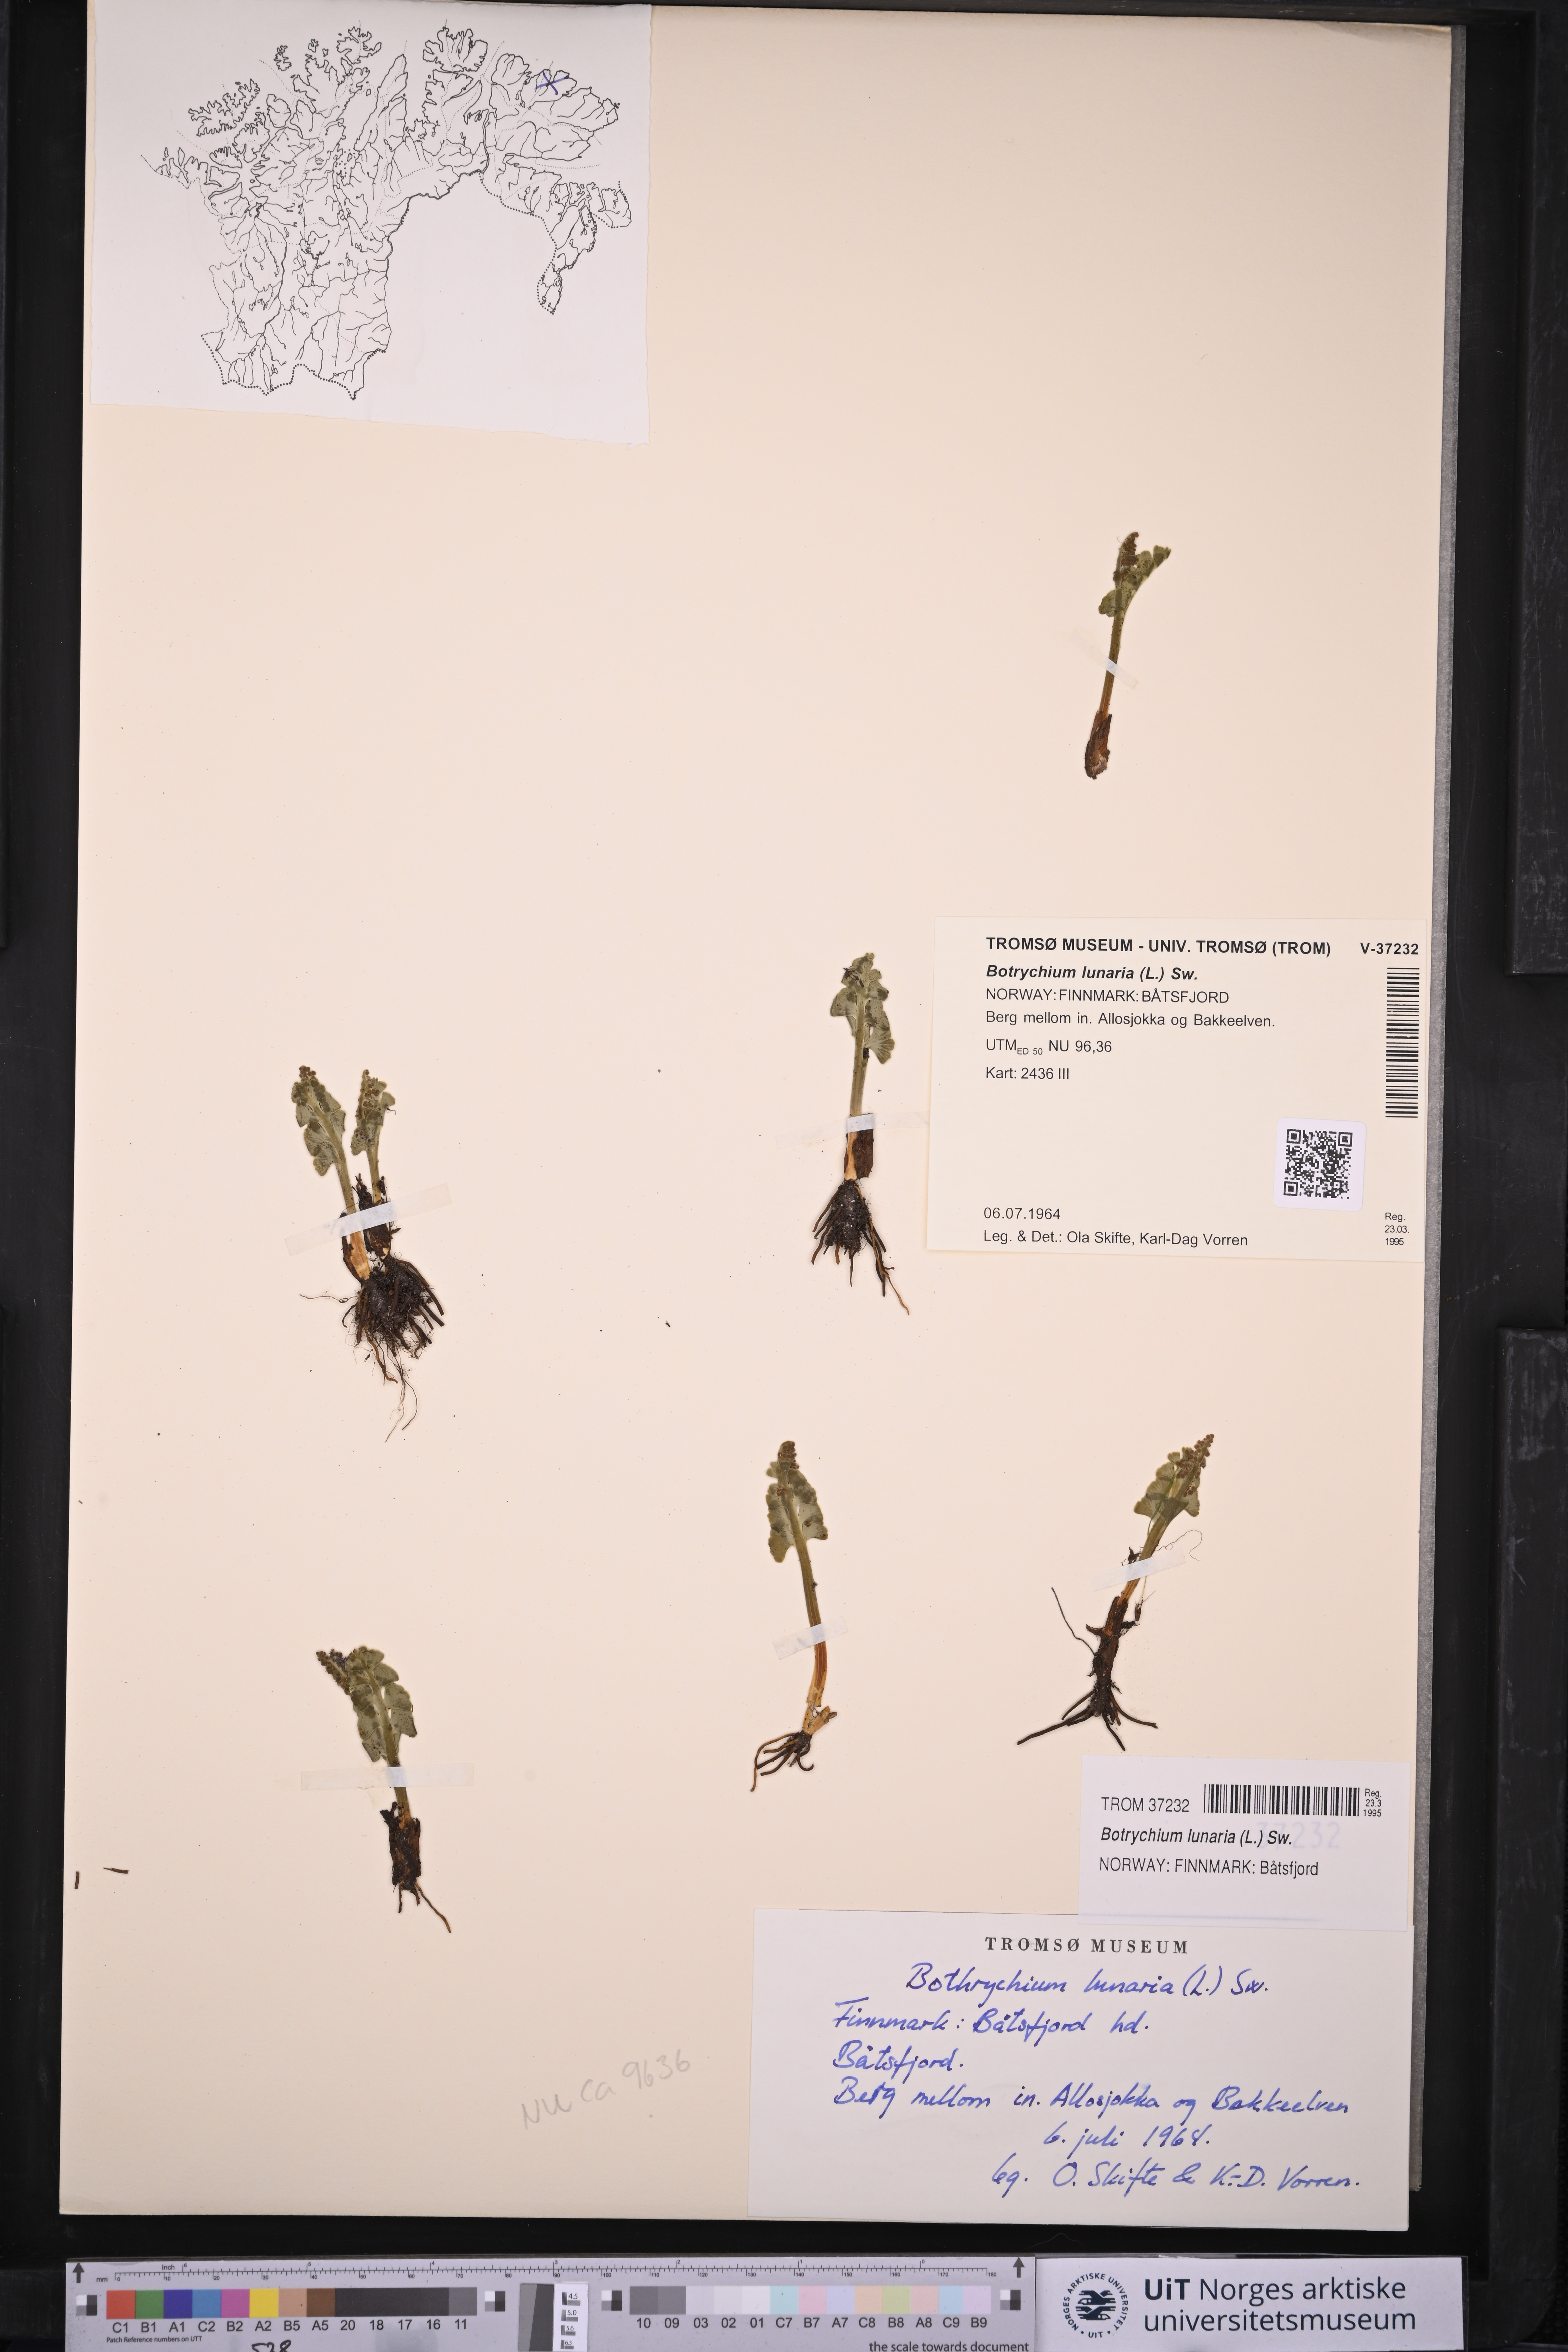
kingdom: Plantae
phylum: Tracheophyta
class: Polypodiopsida
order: Ophioglossales
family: Ophioglossaceae
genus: Botrychium
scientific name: Botrychium lunaria
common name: Moonwort
